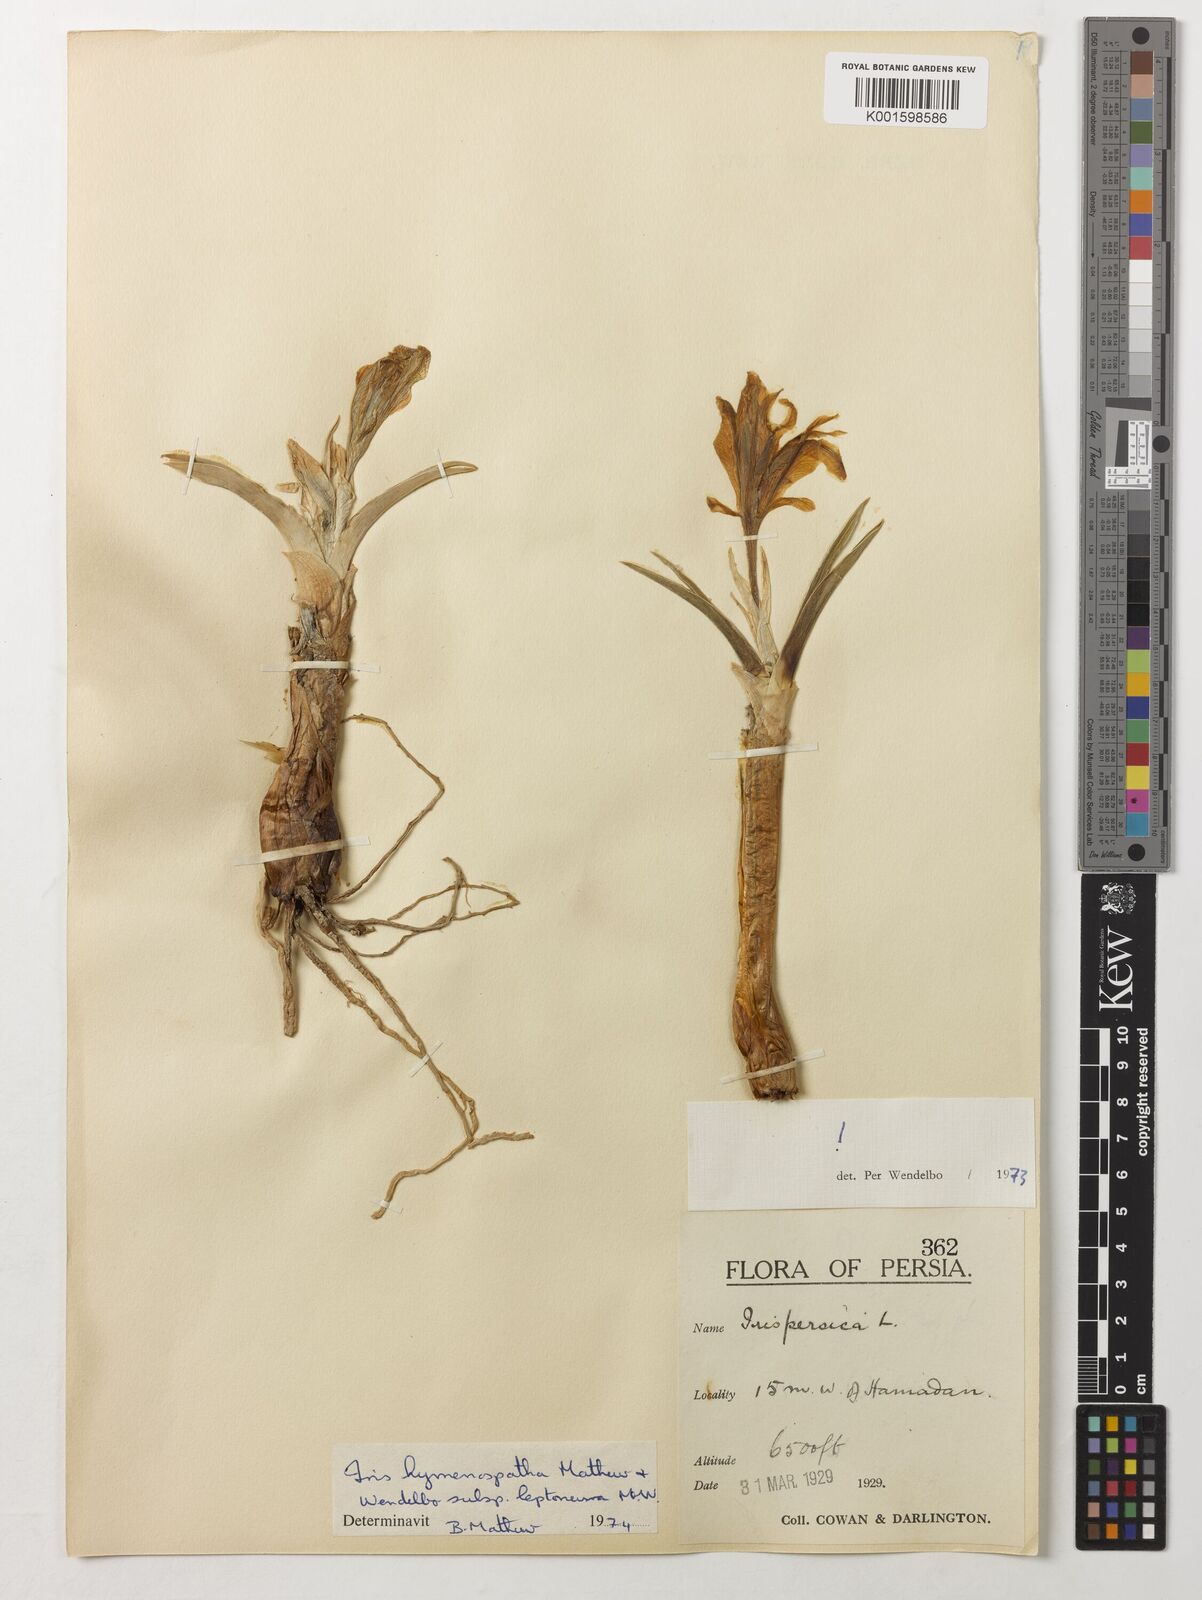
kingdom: Plantae
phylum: Tracheophyta
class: Liliopsida
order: Asparagales
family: Iridaceae
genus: Iris
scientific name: Iris hymenospatha
